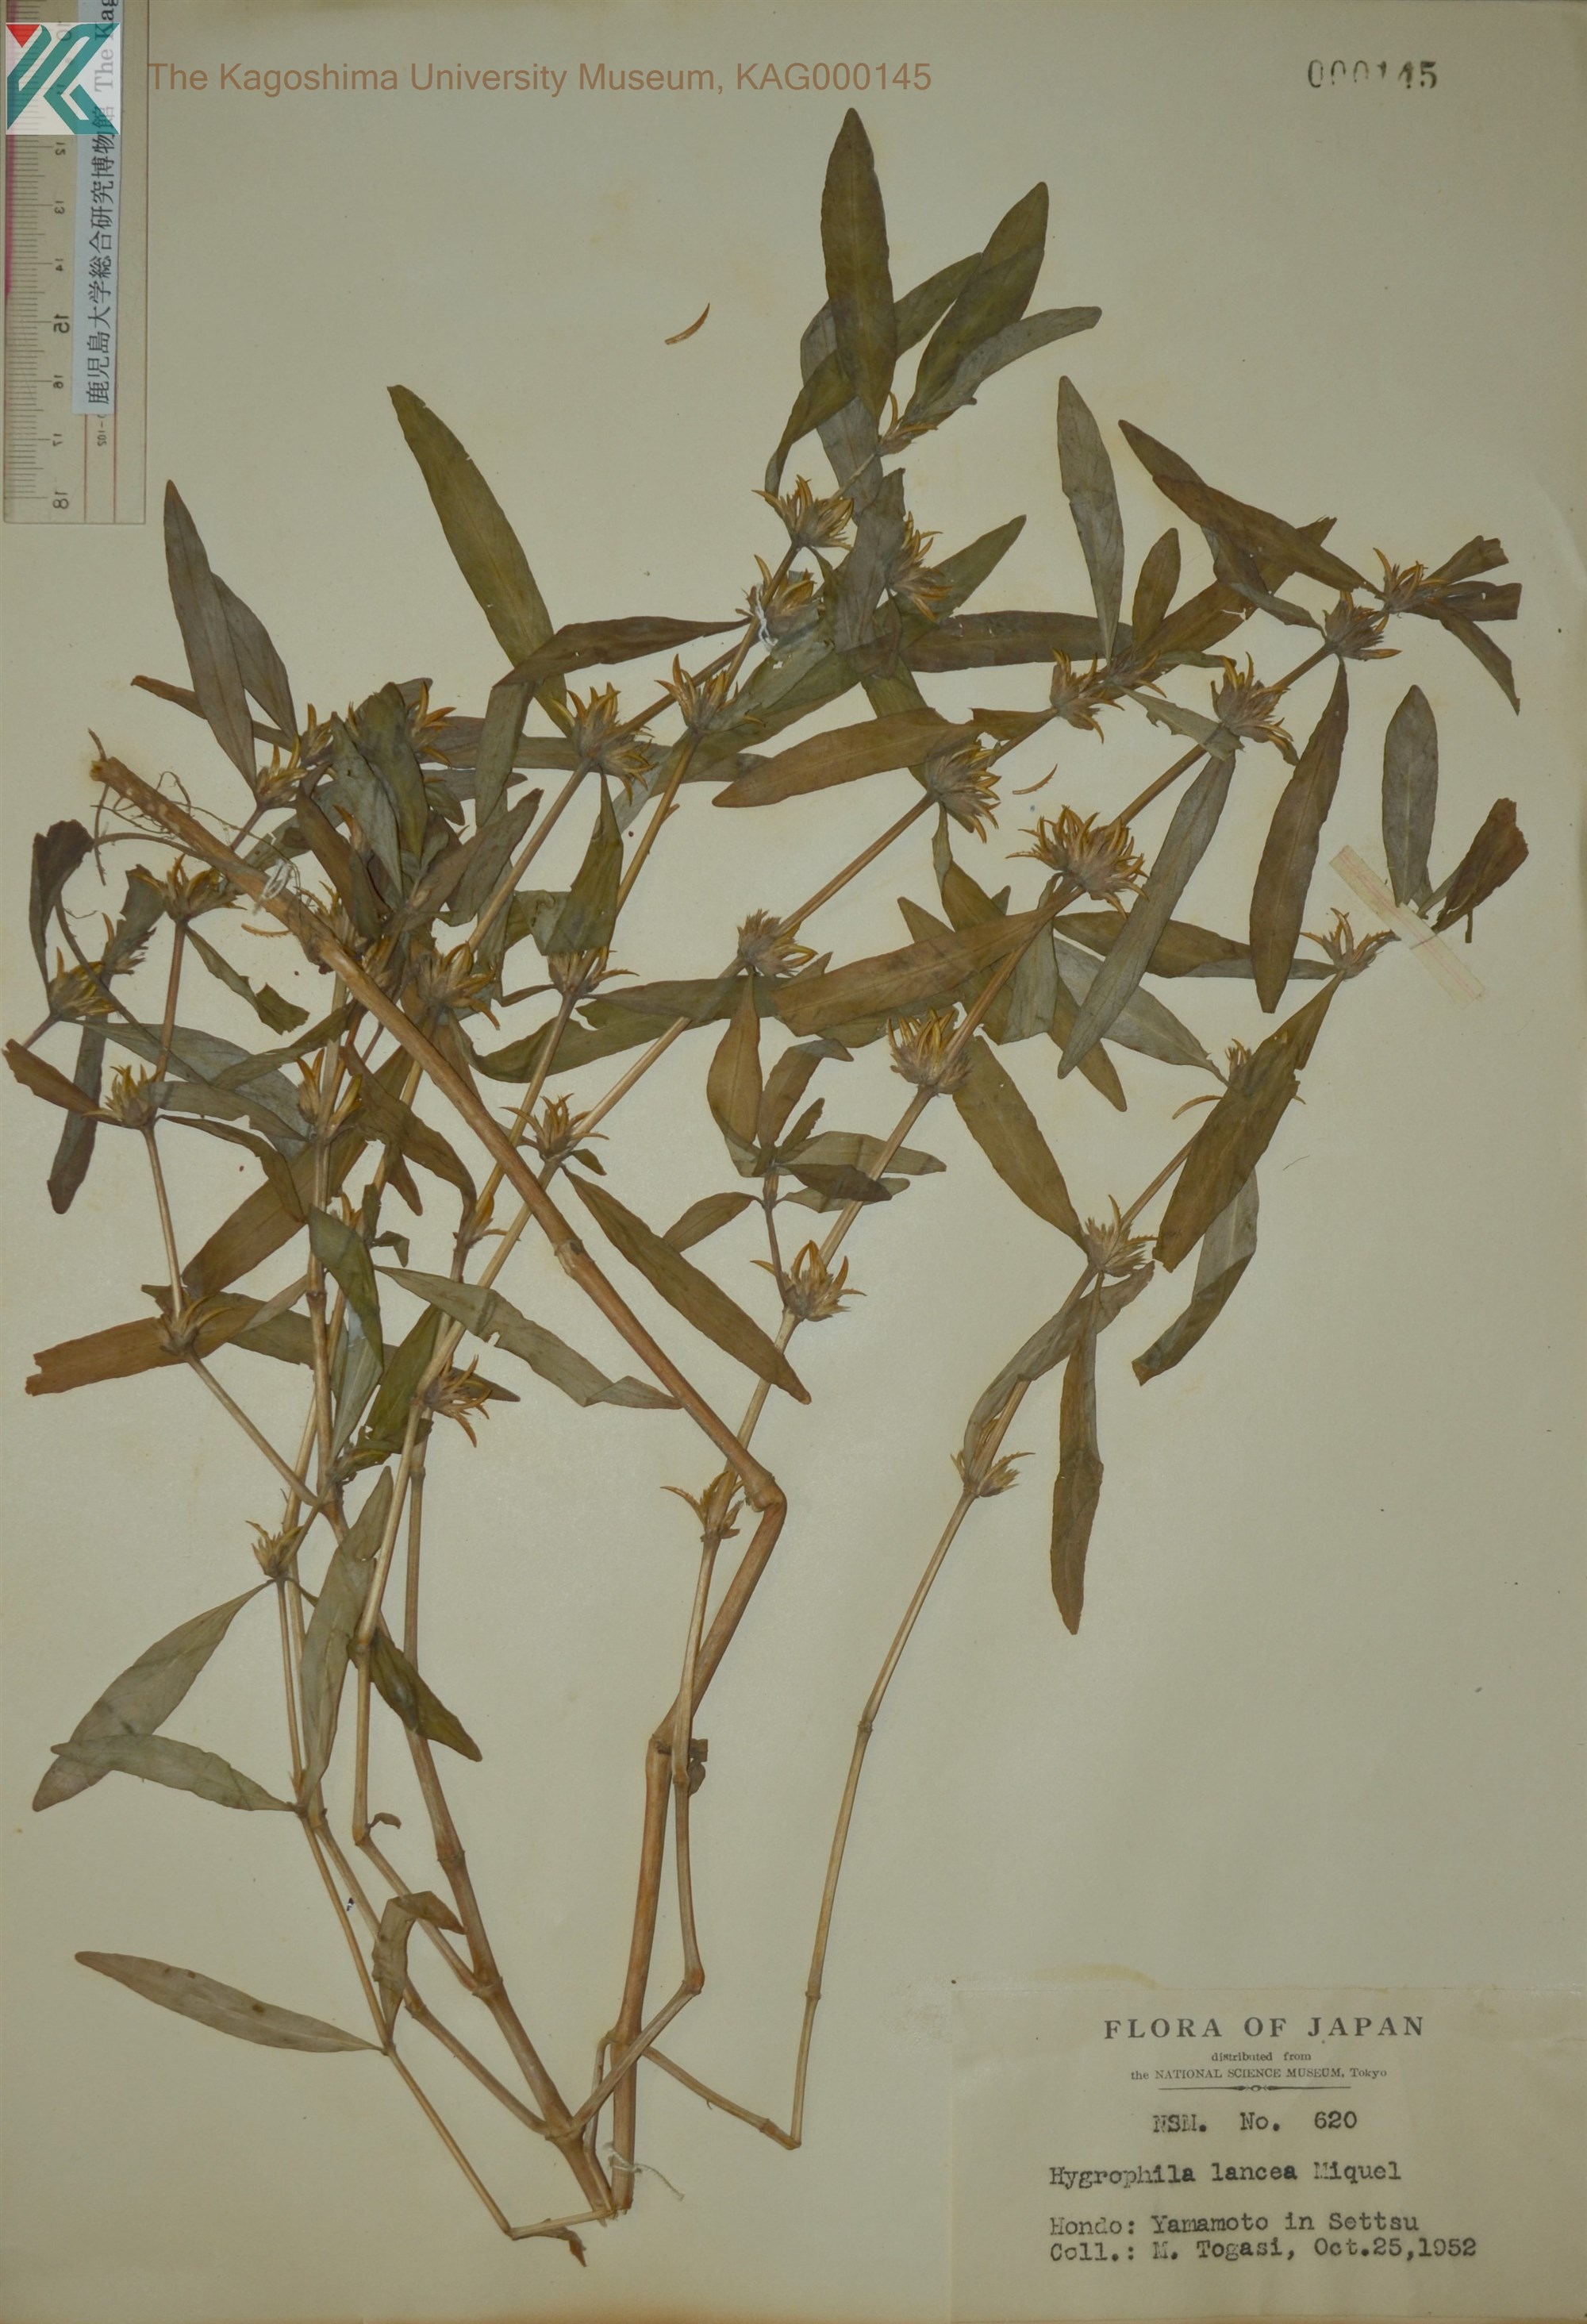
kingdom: Plantae
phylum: Tracheophyta
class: Magnoliopsida
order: Lamiales
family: Acanthaceae
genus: Hygrophila
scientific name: Hygrophila ringens
